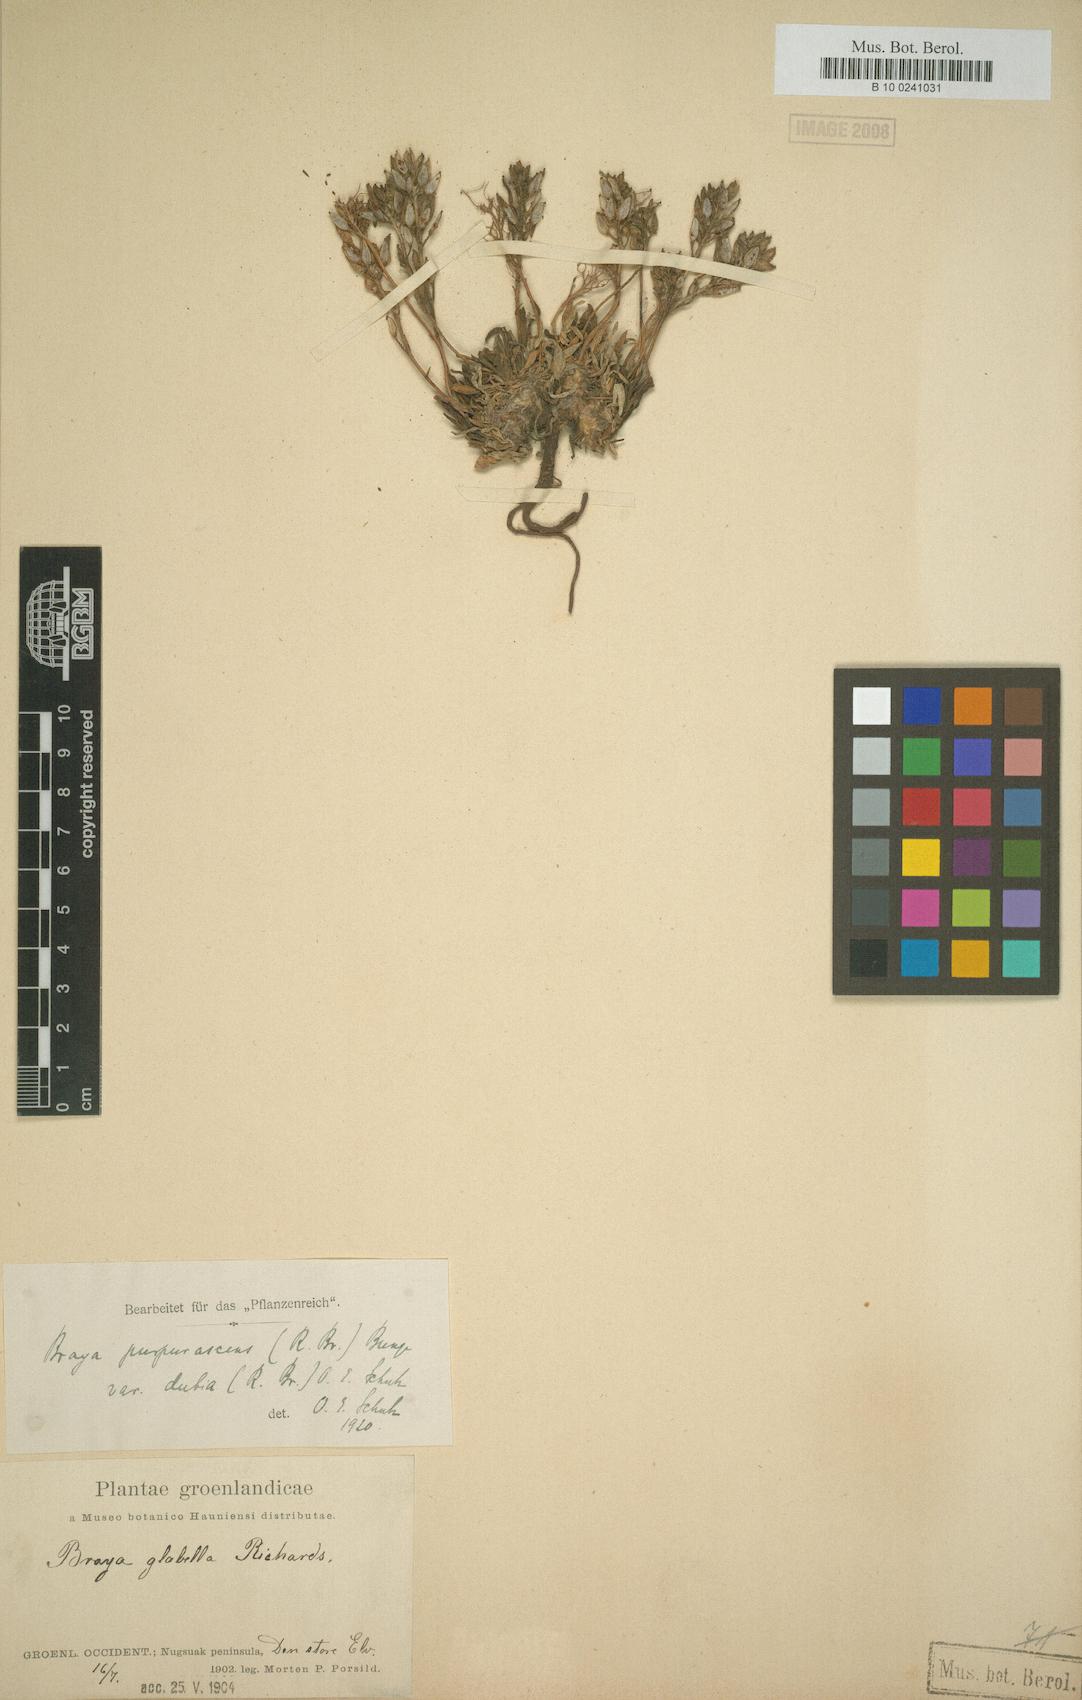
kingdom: Plantae
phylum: Tracheophyta
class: Magnoliopsida
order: Brassicales
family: Brassicaceae
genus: Braya
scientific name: Braya purpurascens
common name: Alpine braya
